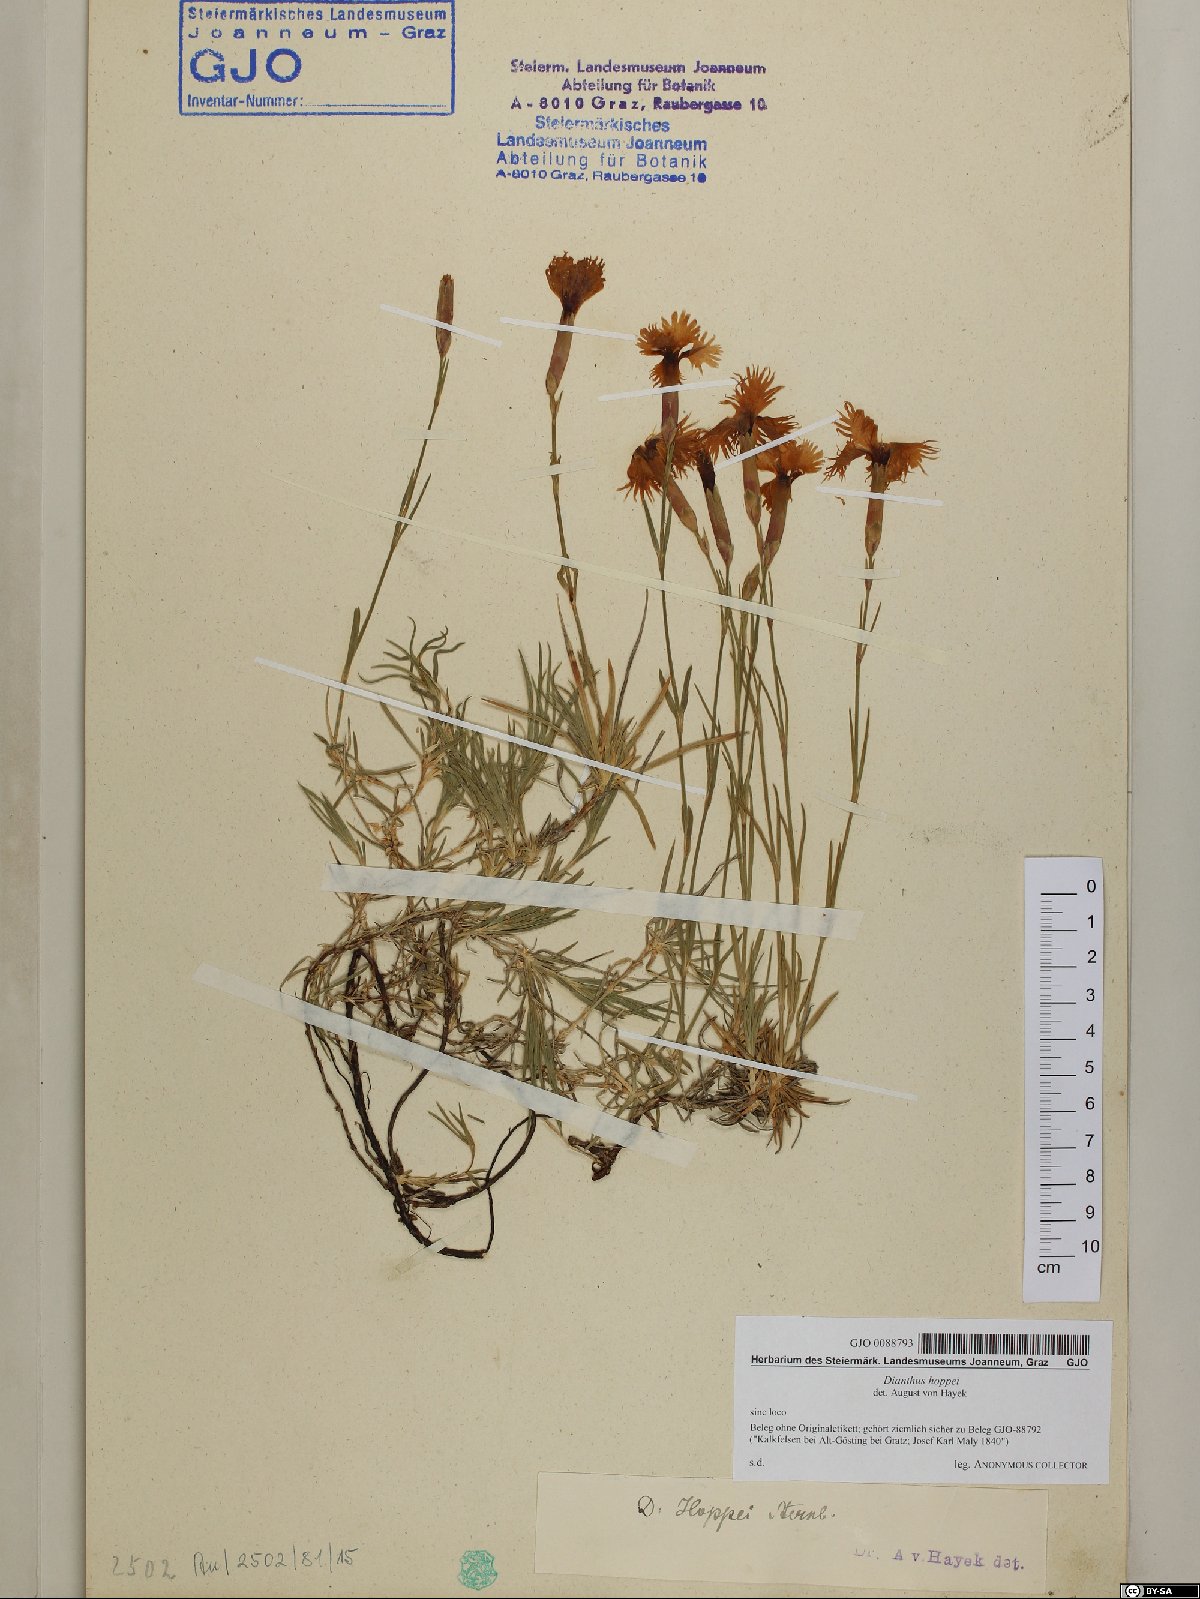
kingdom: Plantae
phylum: Tracheophyta
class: Magnoliopsida
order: Caryophyllales
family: Caryophyllaceae
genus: Dianthus
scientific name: Dianthus plumarius
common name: Pink
